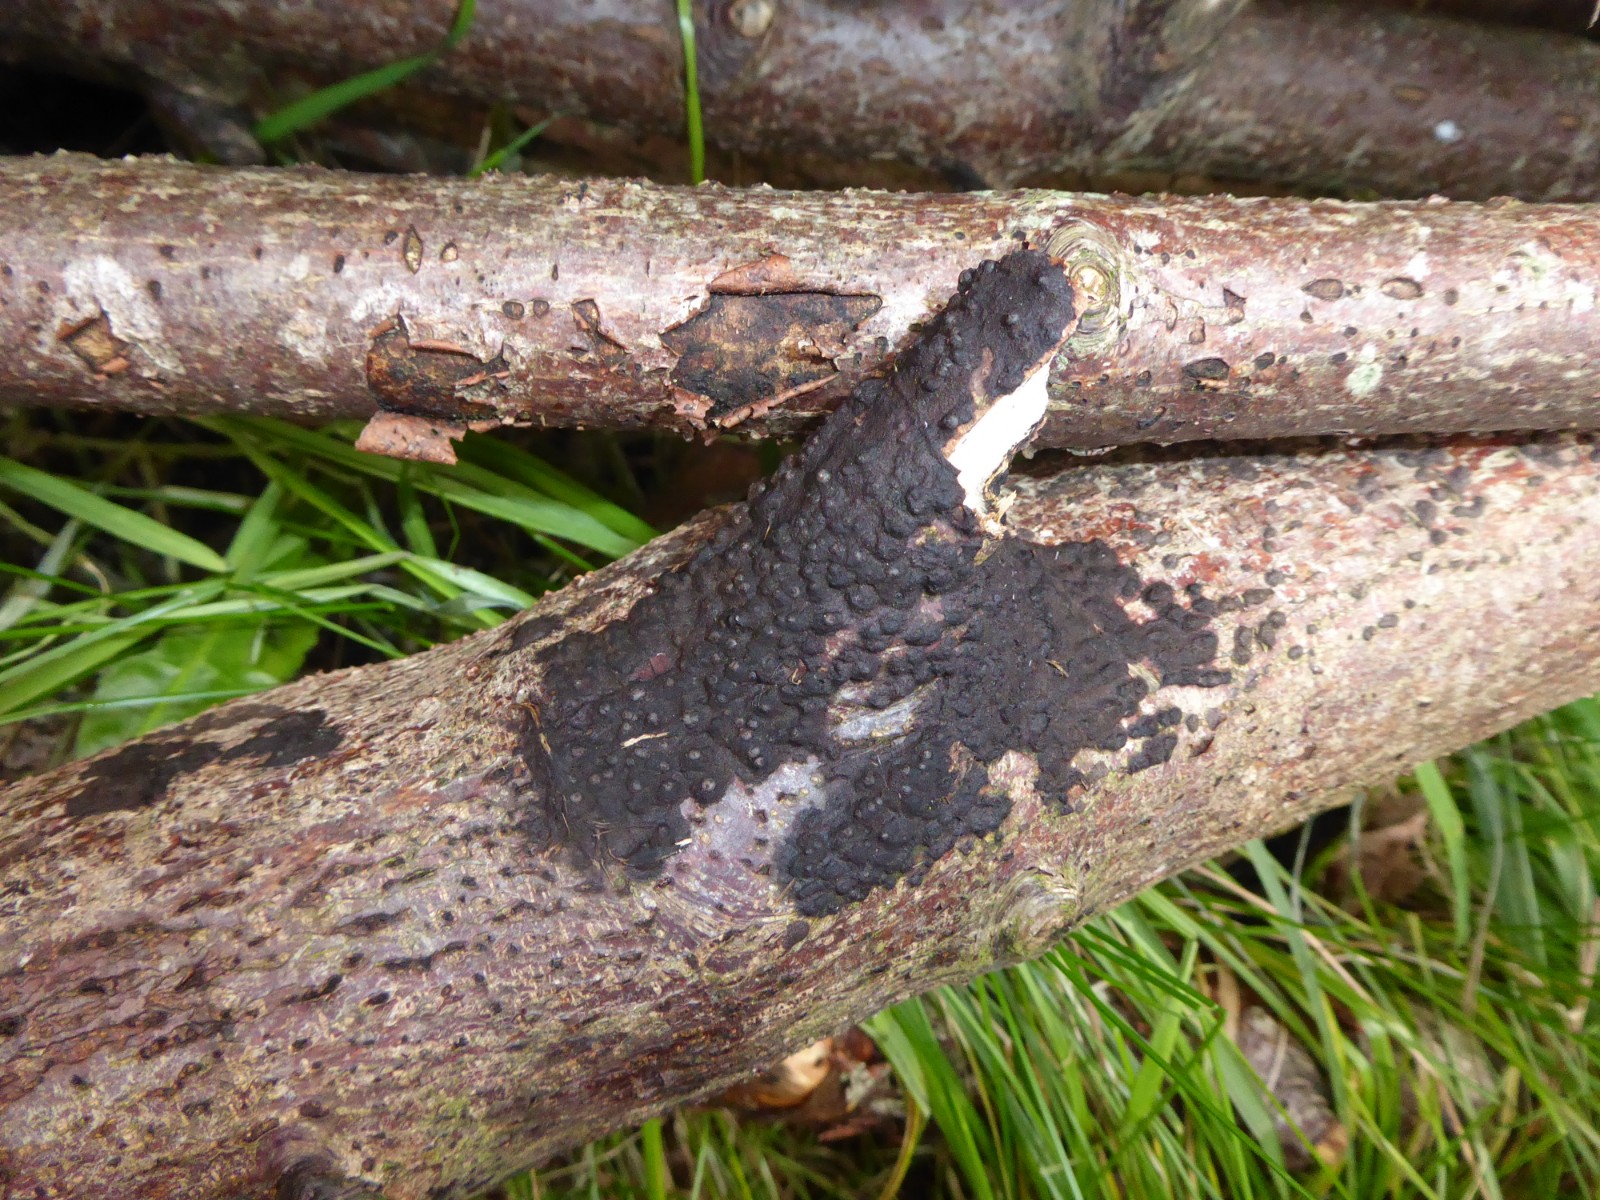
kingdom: Fungi
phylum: Ascomycota
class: Sordariomycetes
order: Xylariales
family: Xylariaceae
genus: Rosellinia
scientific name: Rosellinia
